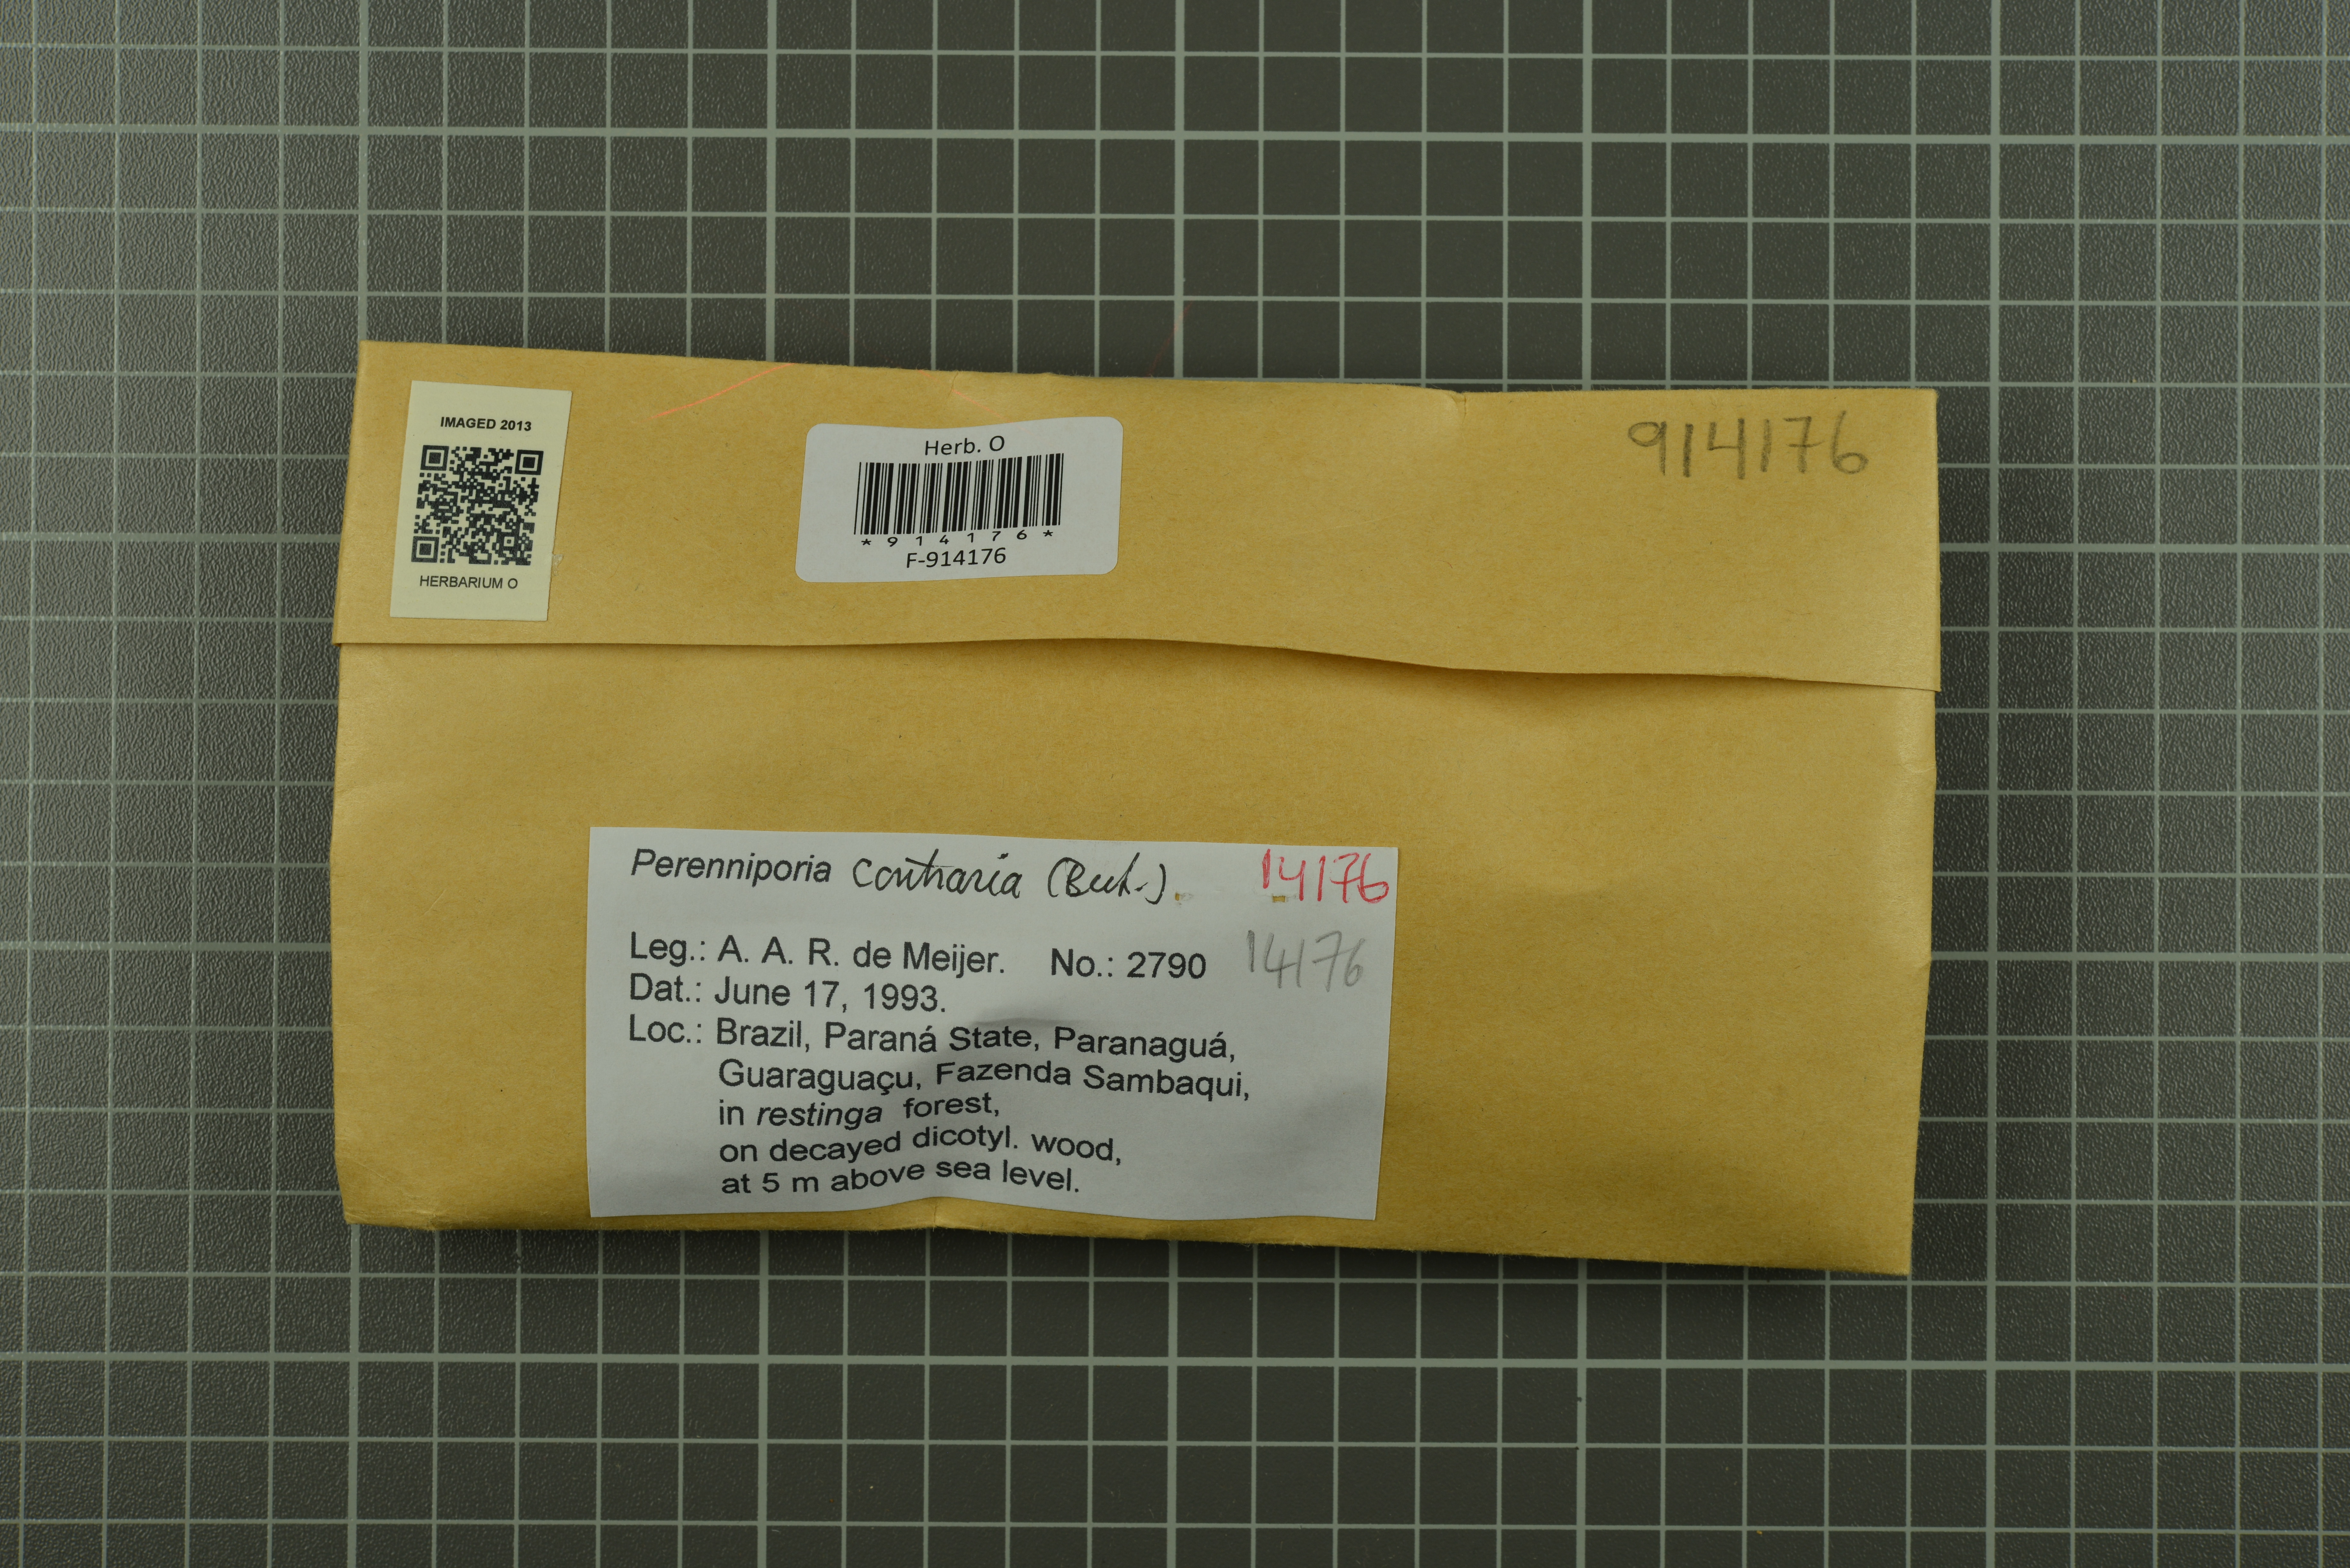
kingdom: Fungi
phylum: Basidiomycota
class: Agaricomycetes
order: Polyporales
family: Polyporaceae
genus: Perenniporia
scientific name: Perenniporia contraria
